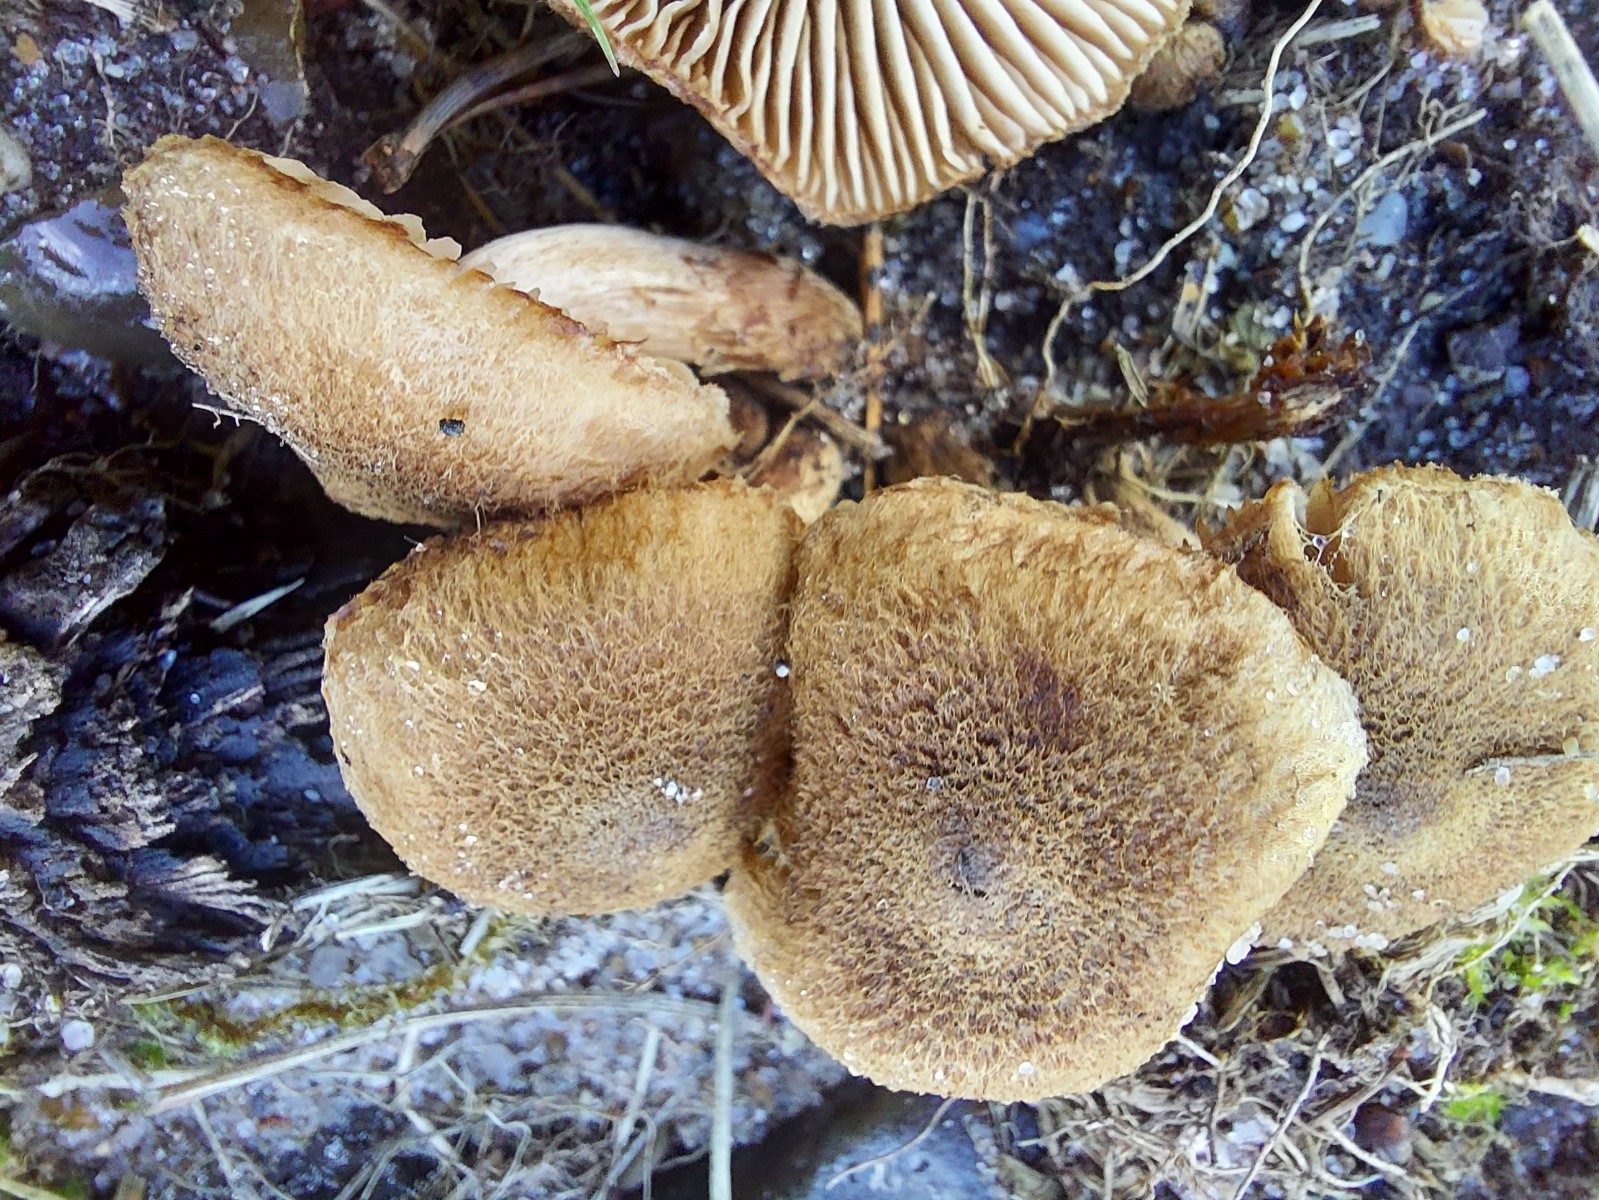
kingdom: Fungi
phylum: Basidiomycota
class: Agaricomycetes
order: Agaricales
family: Inocybaceae
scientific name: Inocybaceae
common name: trævlhatfamilien
